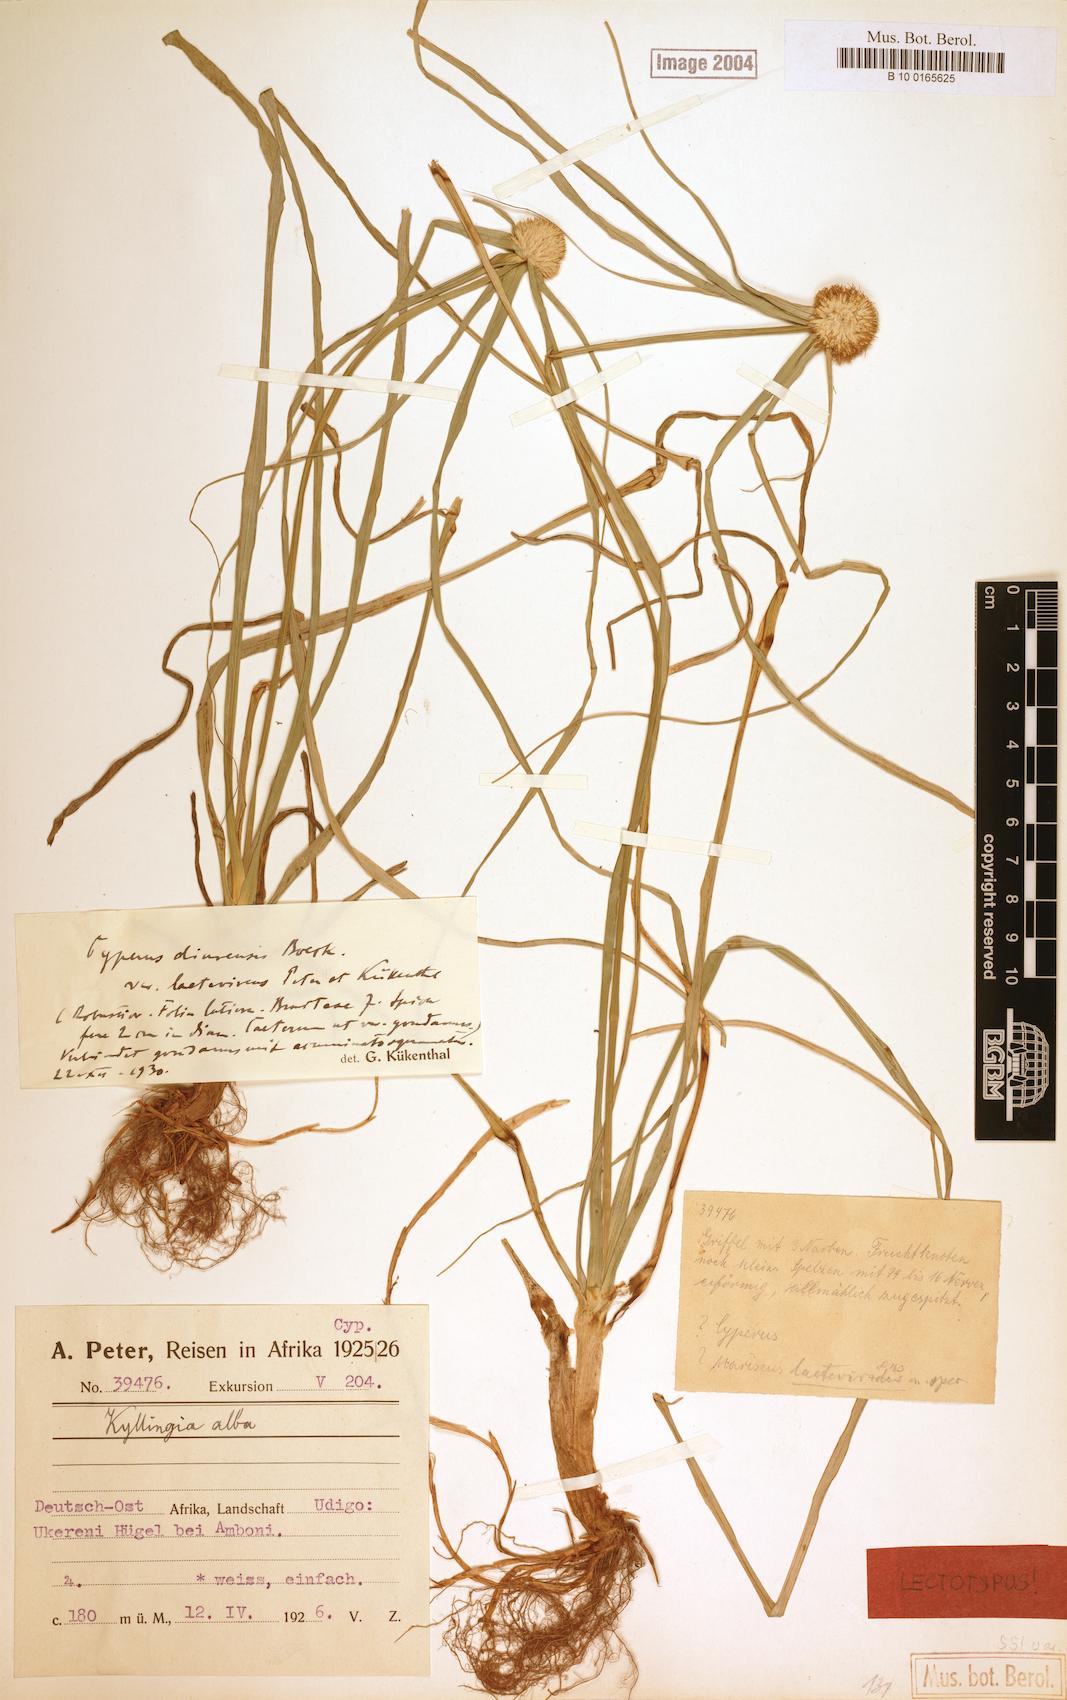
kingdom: Plantae
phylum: Tracheophyta
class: Liliopsida
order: Poales
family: Cyperaceae
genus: Cyperus
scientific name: Cyperus diurensis
